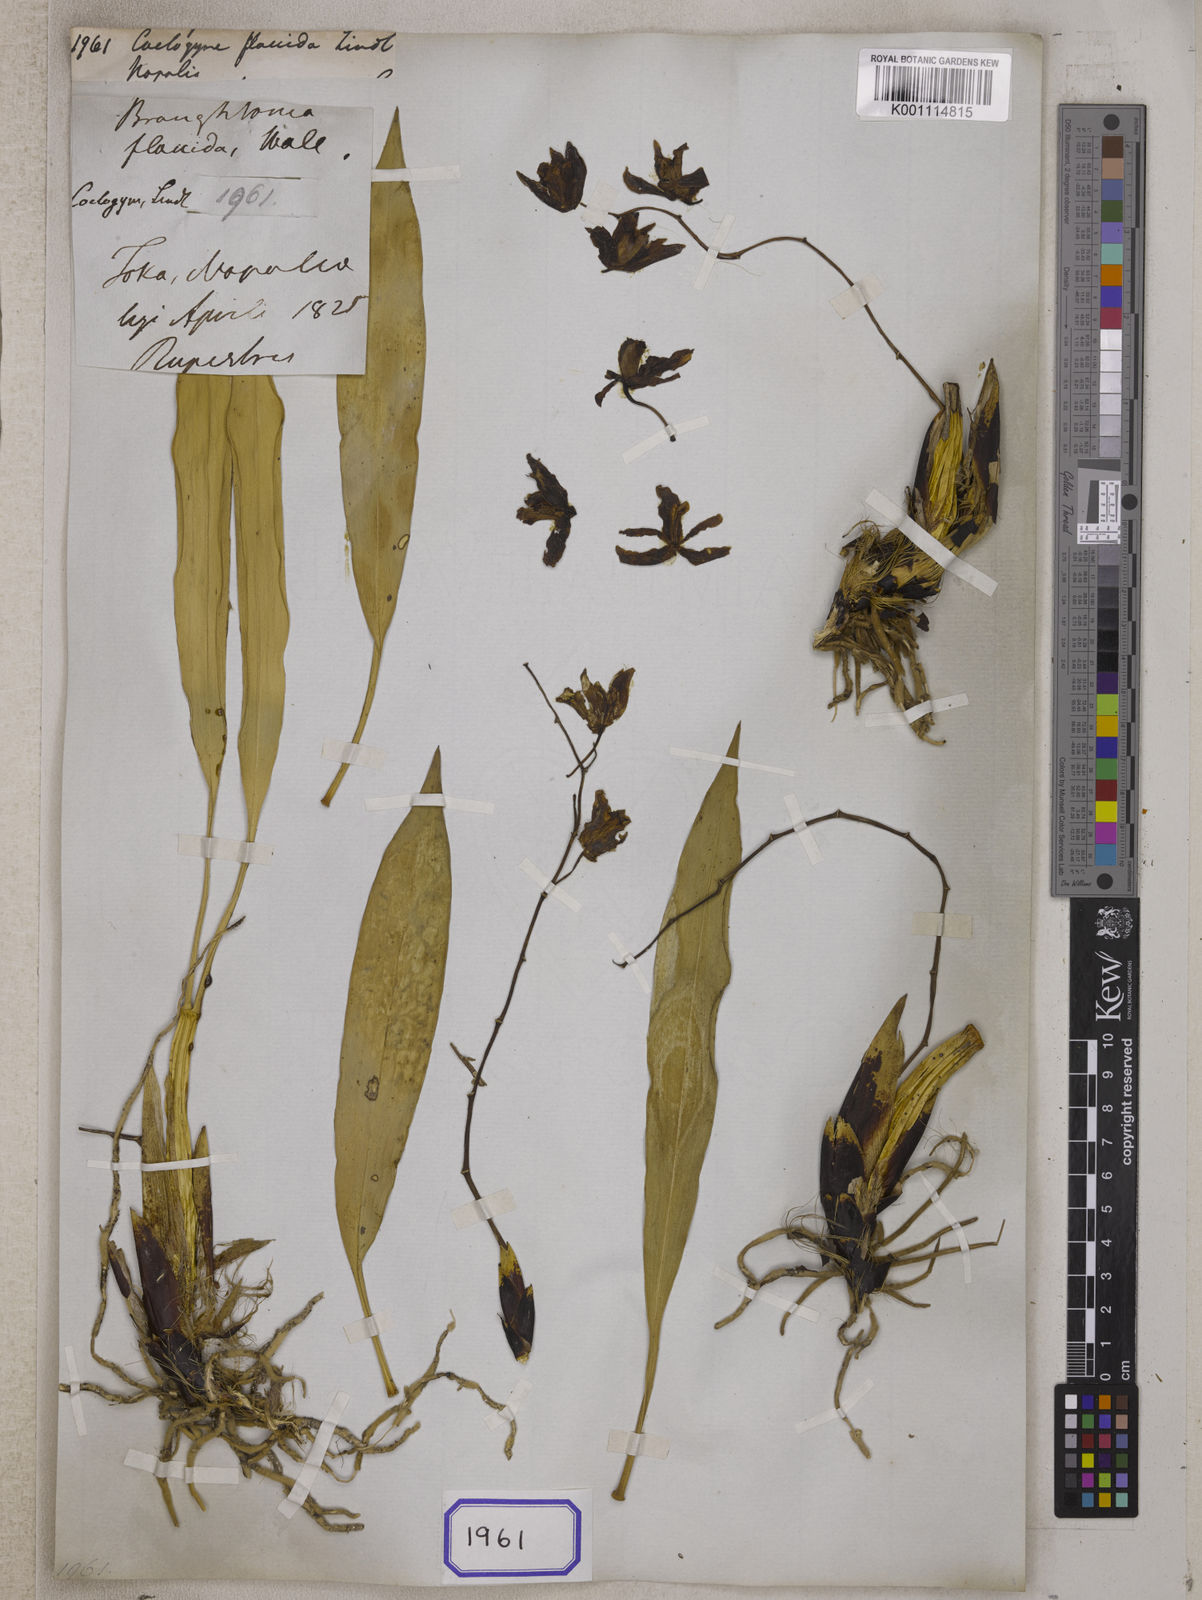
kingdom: Plantae
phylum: Tracheophyta
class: Liliopsida
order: Asparagales
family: Orchidaceae
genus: Coelogyne
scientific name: Coelogyne flaccida
